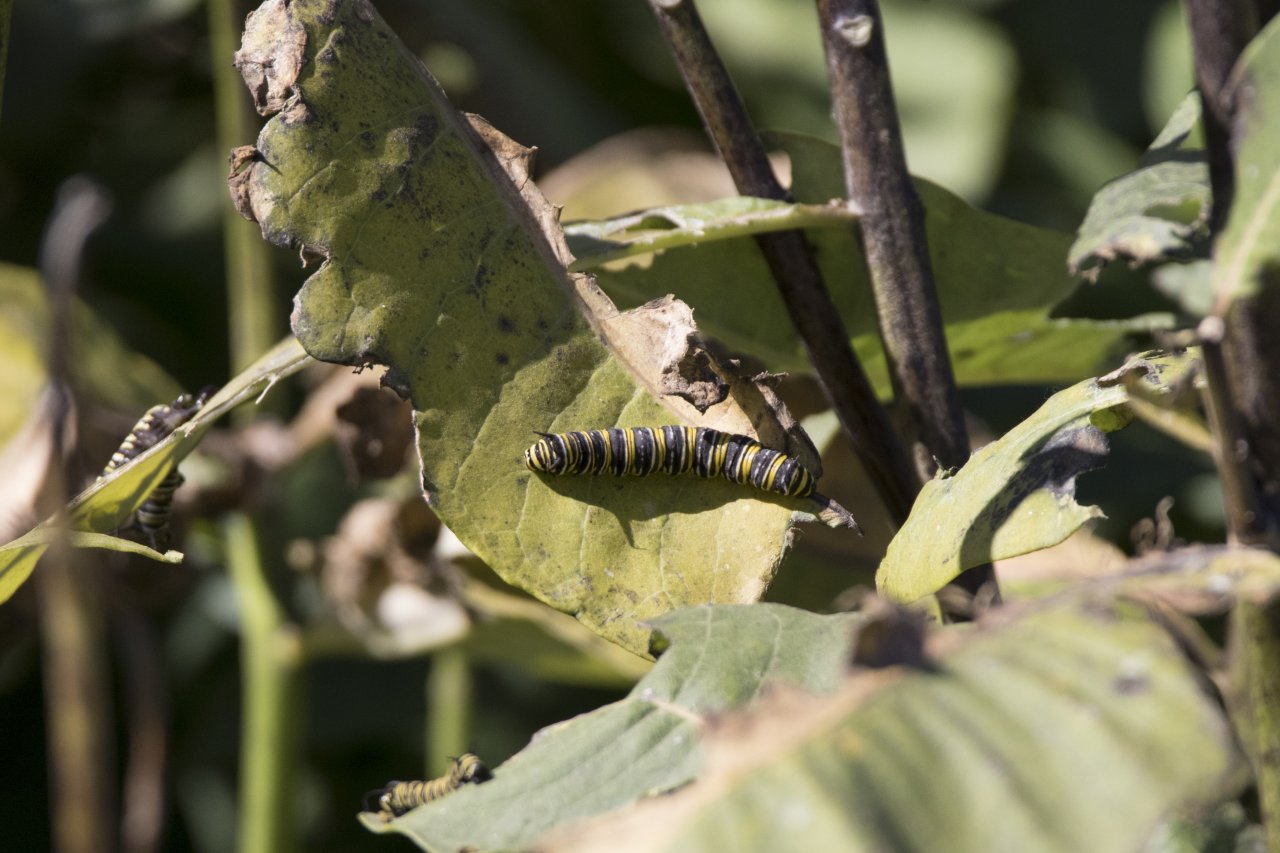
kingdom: Animalia
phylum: Arthropoda
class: Insecta
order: Lepidoptera
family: Nymphalidae
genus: Danaus
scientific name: Danaus plexippus
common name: Monarch
